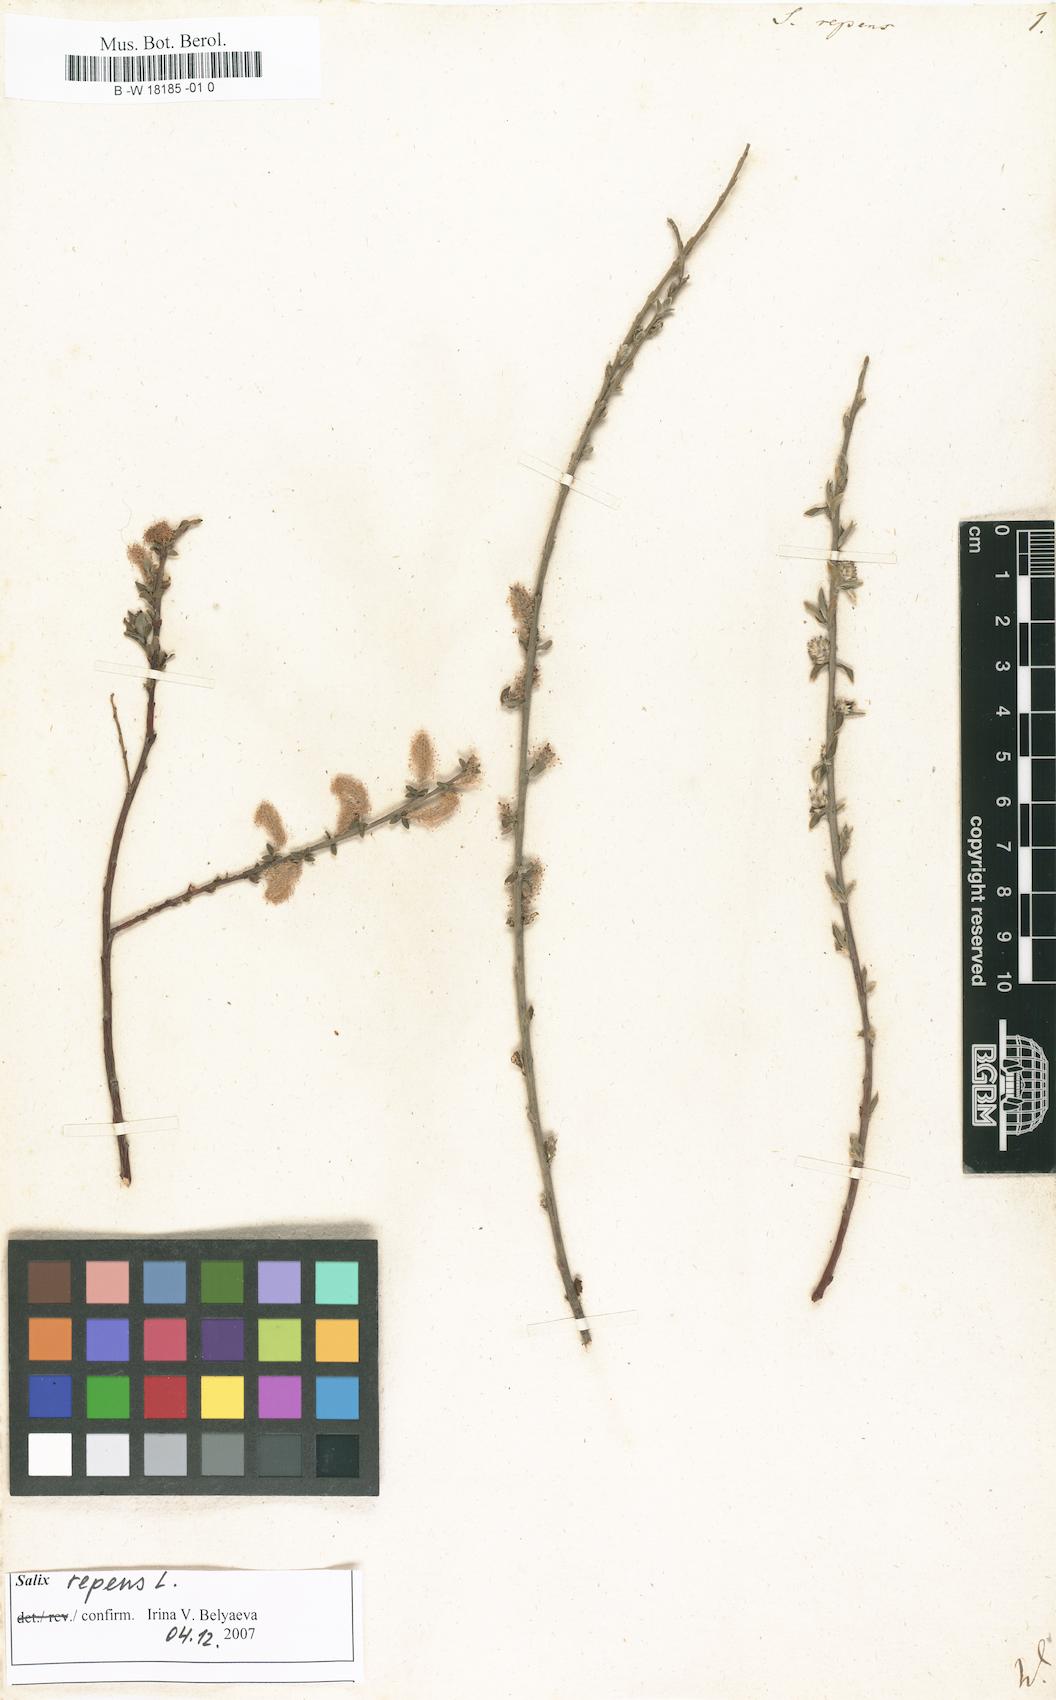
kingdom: Plantae
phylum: Tracheophyta
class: Magnoliopsida
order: Malpighiales
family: Salicaceae
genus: Salix
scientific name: Salix repens
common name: Creeping willow
